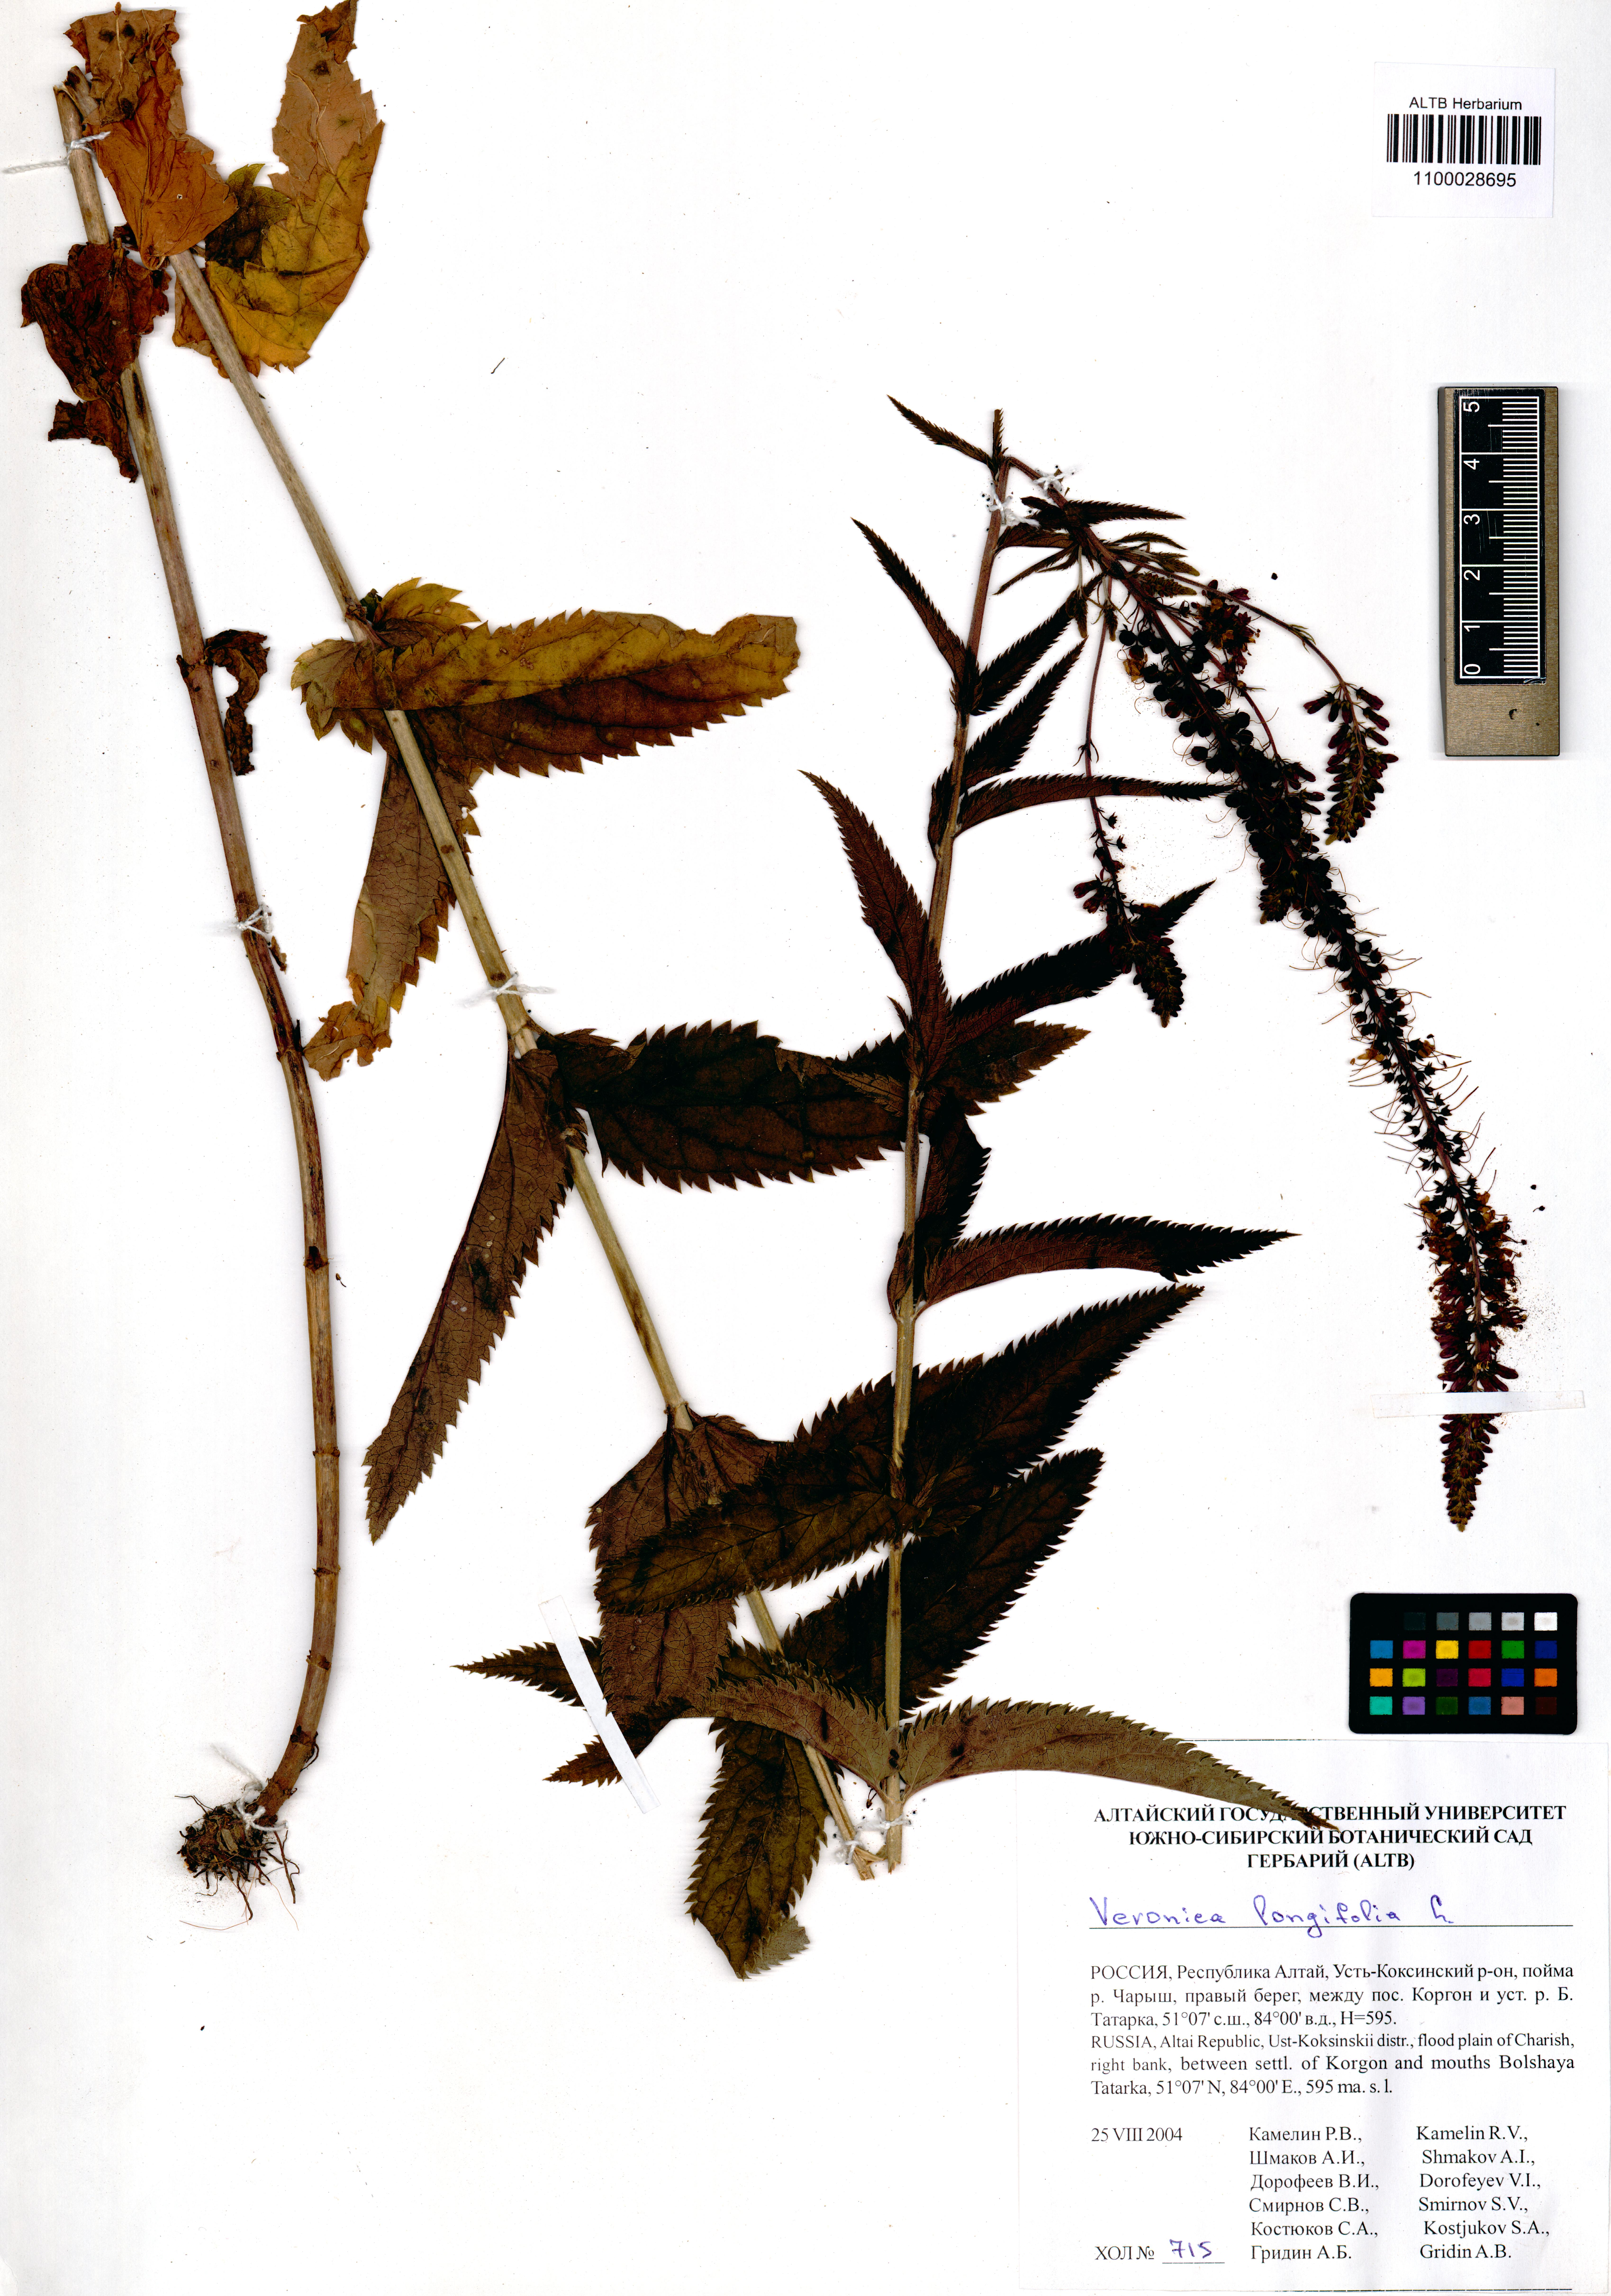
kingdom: Plantae
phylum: Tracheophyta
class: Magnoliopsida
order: Lamiales
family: Plantaginaceae
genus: Veronica
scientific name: Veronica longifolia
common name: Garden speedwell
